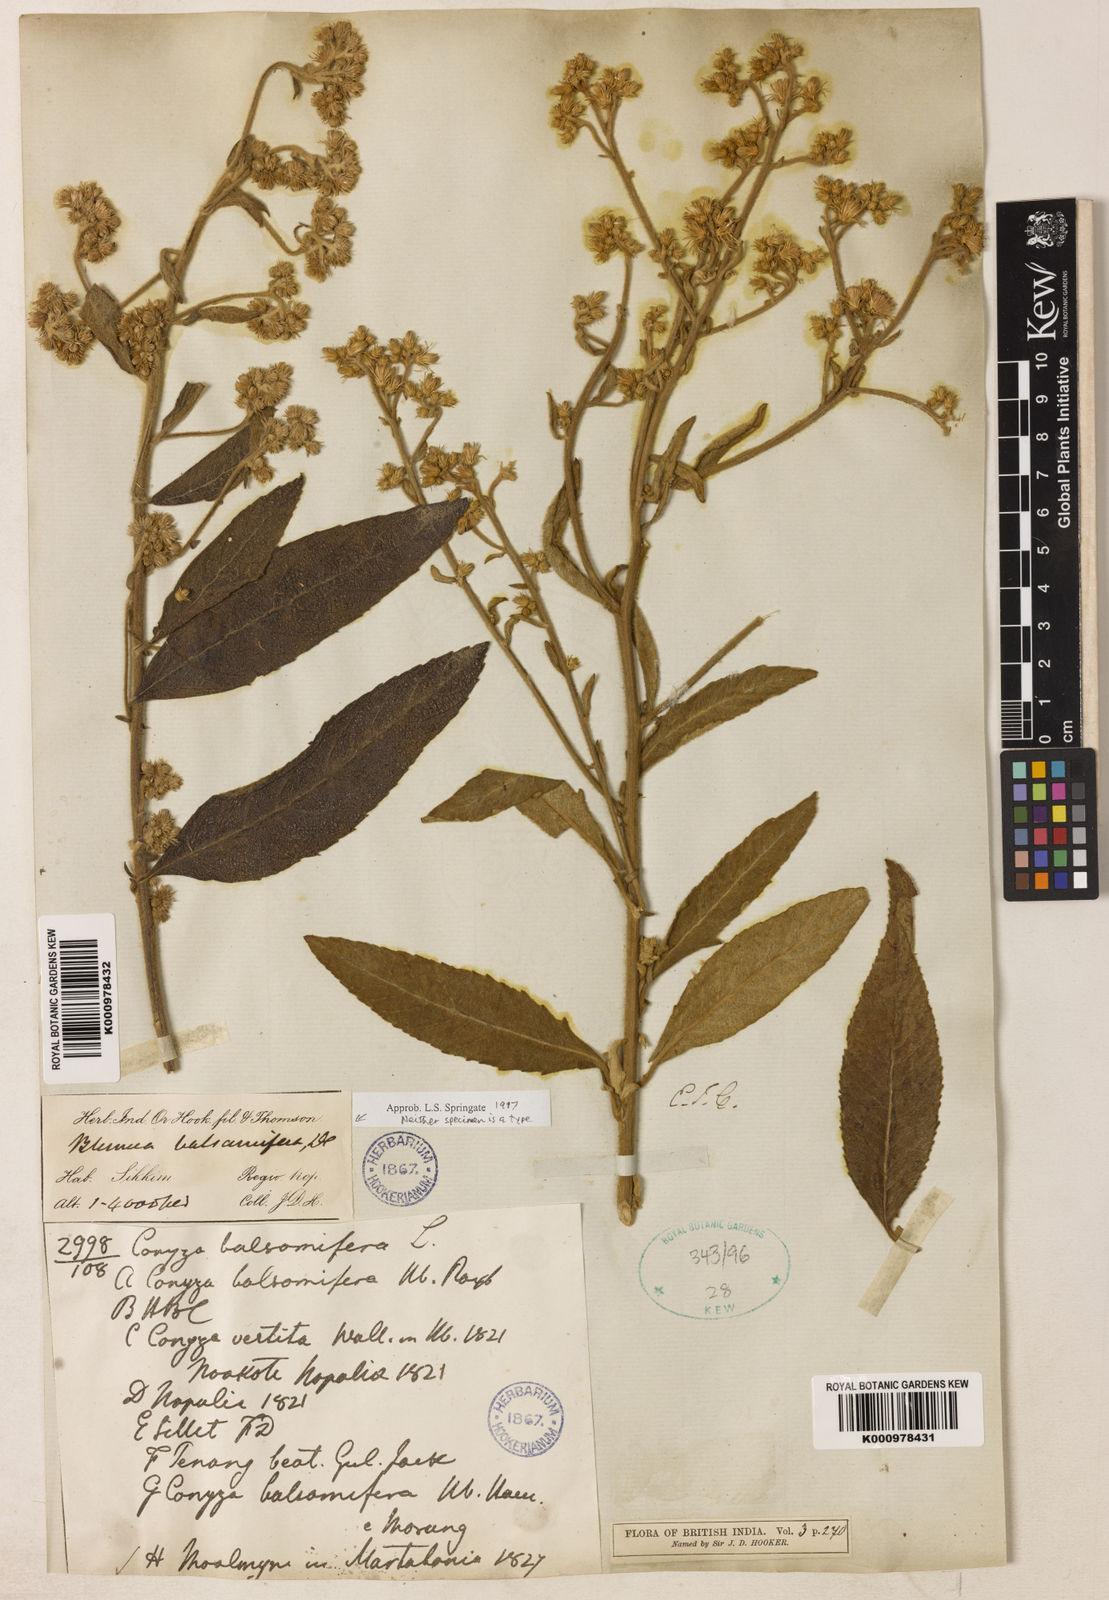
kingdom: Plantae
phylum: Tracheophyta
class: Magnoliopsida
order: Asterales
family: Asteraceae
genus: Blumea
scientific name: Blumea balsamifera
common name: Ngai camphor
